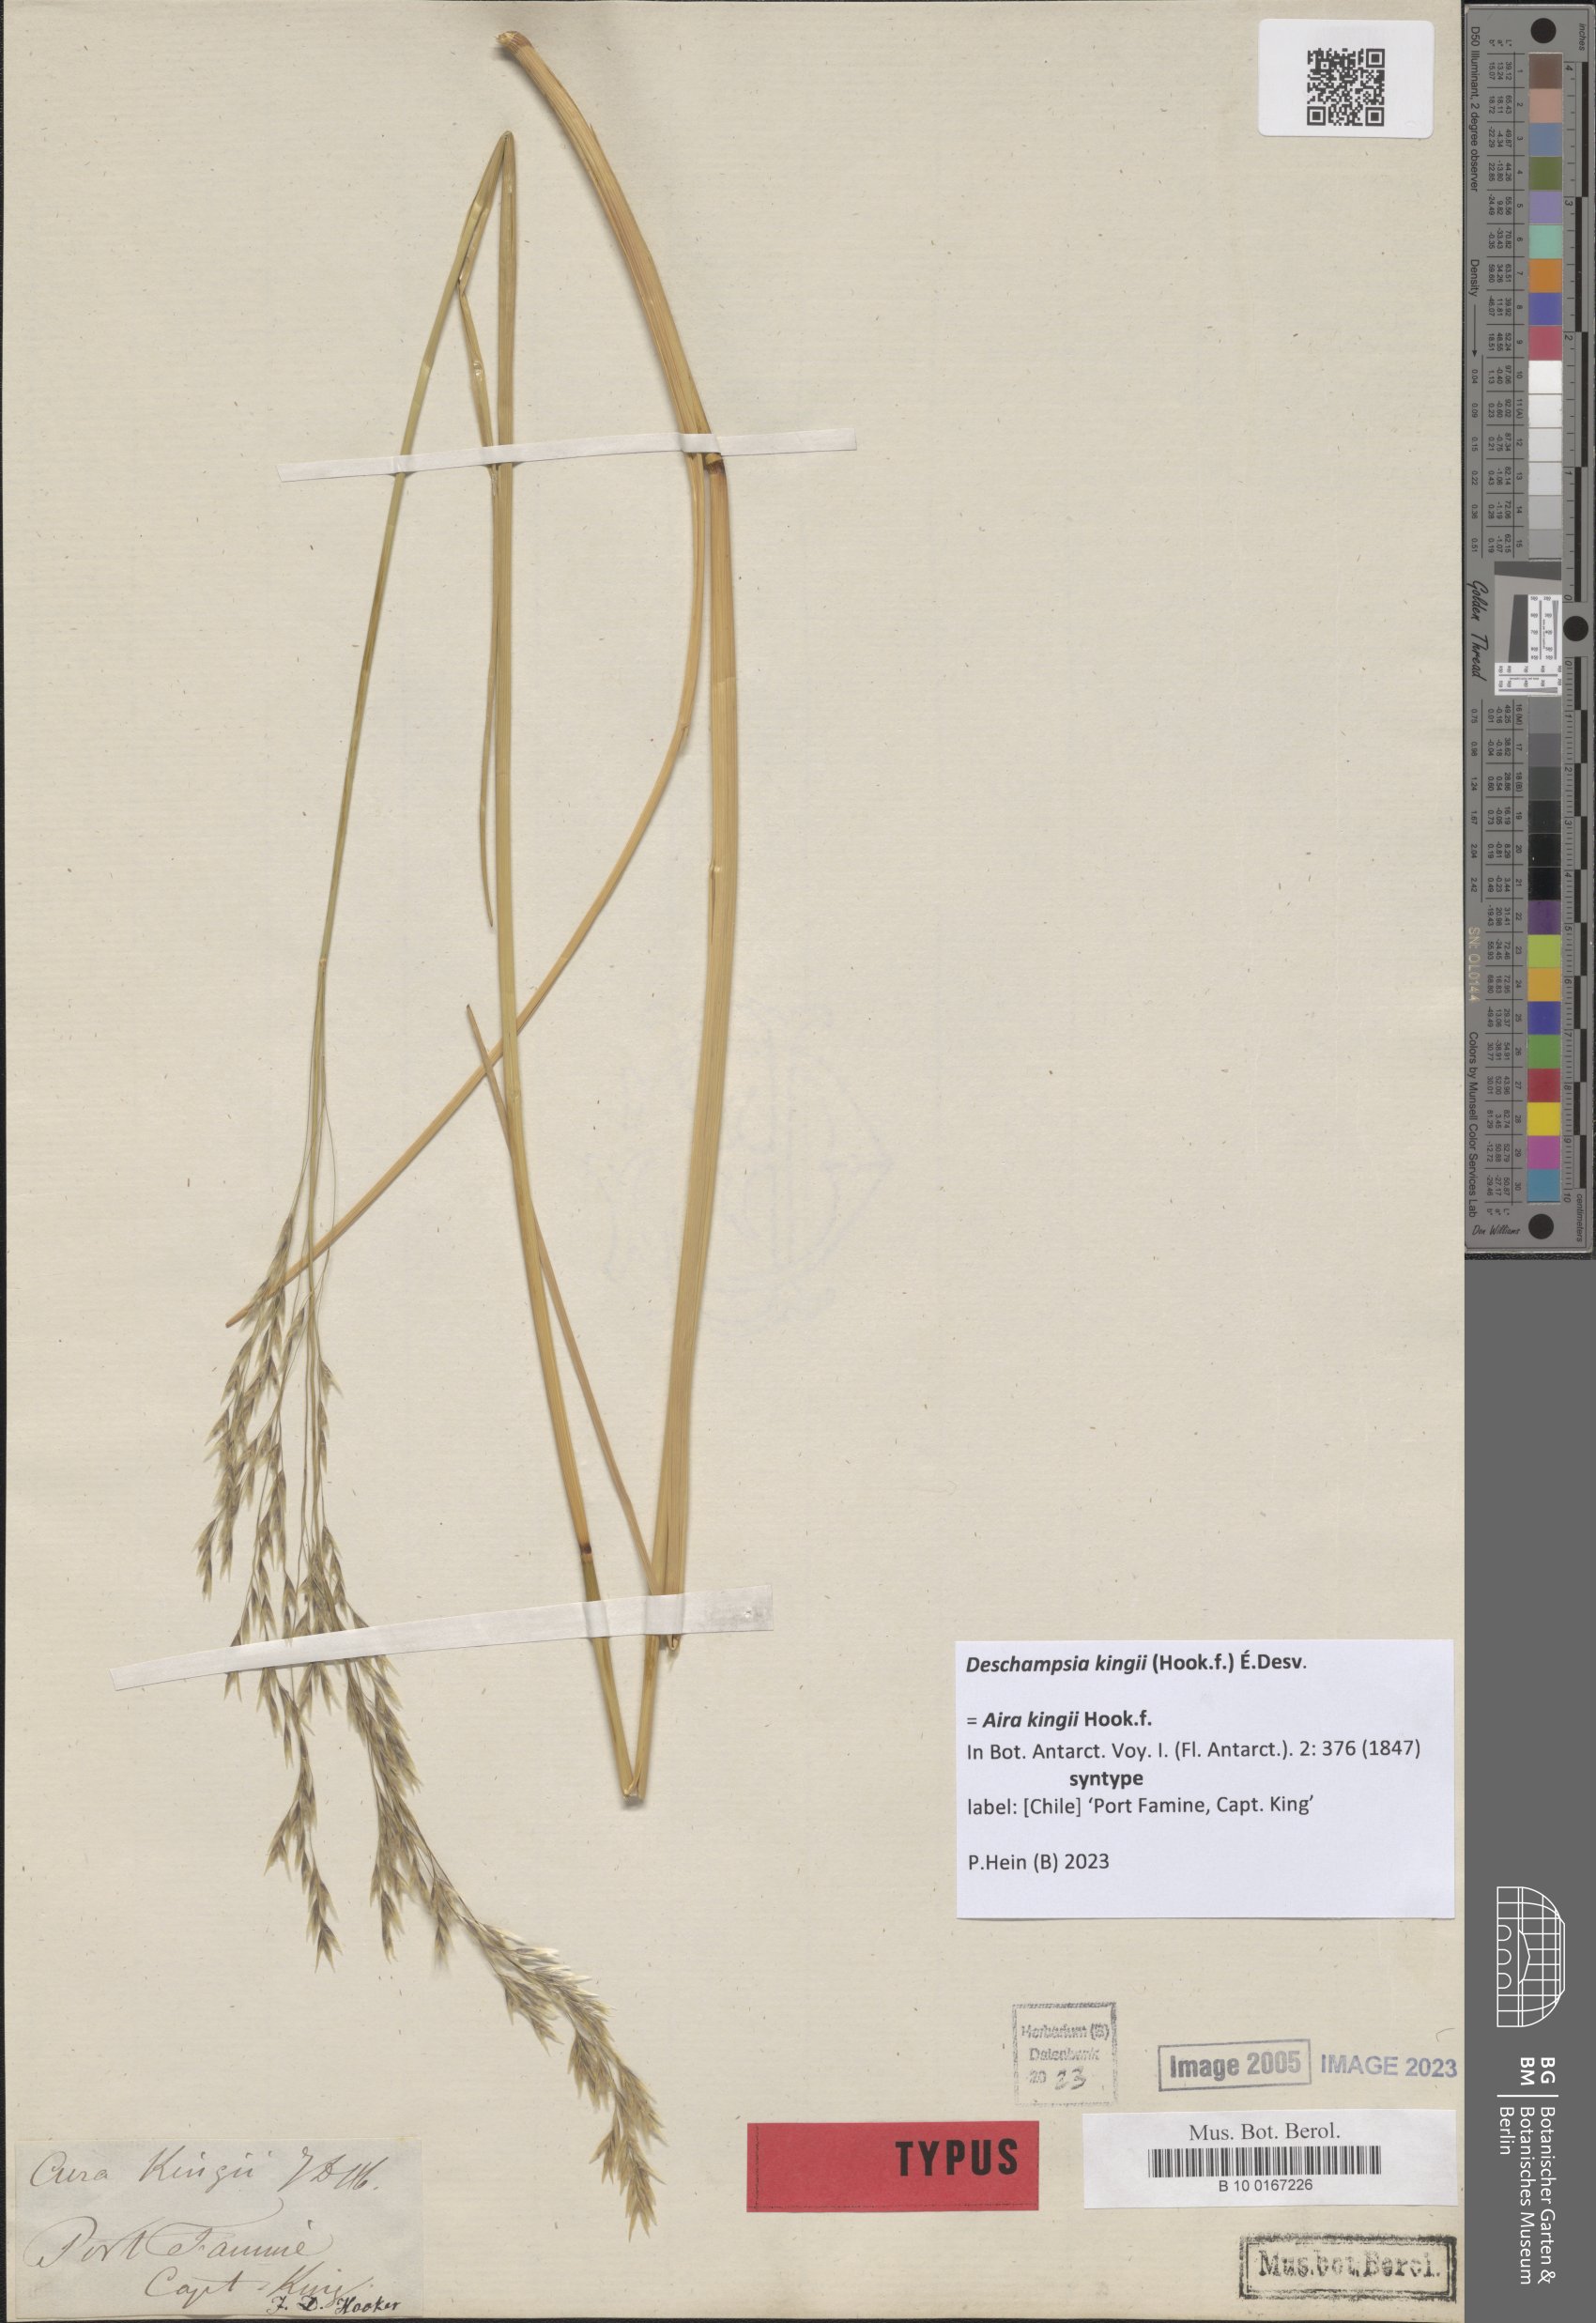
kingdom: Plantae
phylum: Tracheophyta
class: Liliopsida
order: Poales
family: Poaceae
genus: Deschampsia
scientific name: Deschampsia kingii
